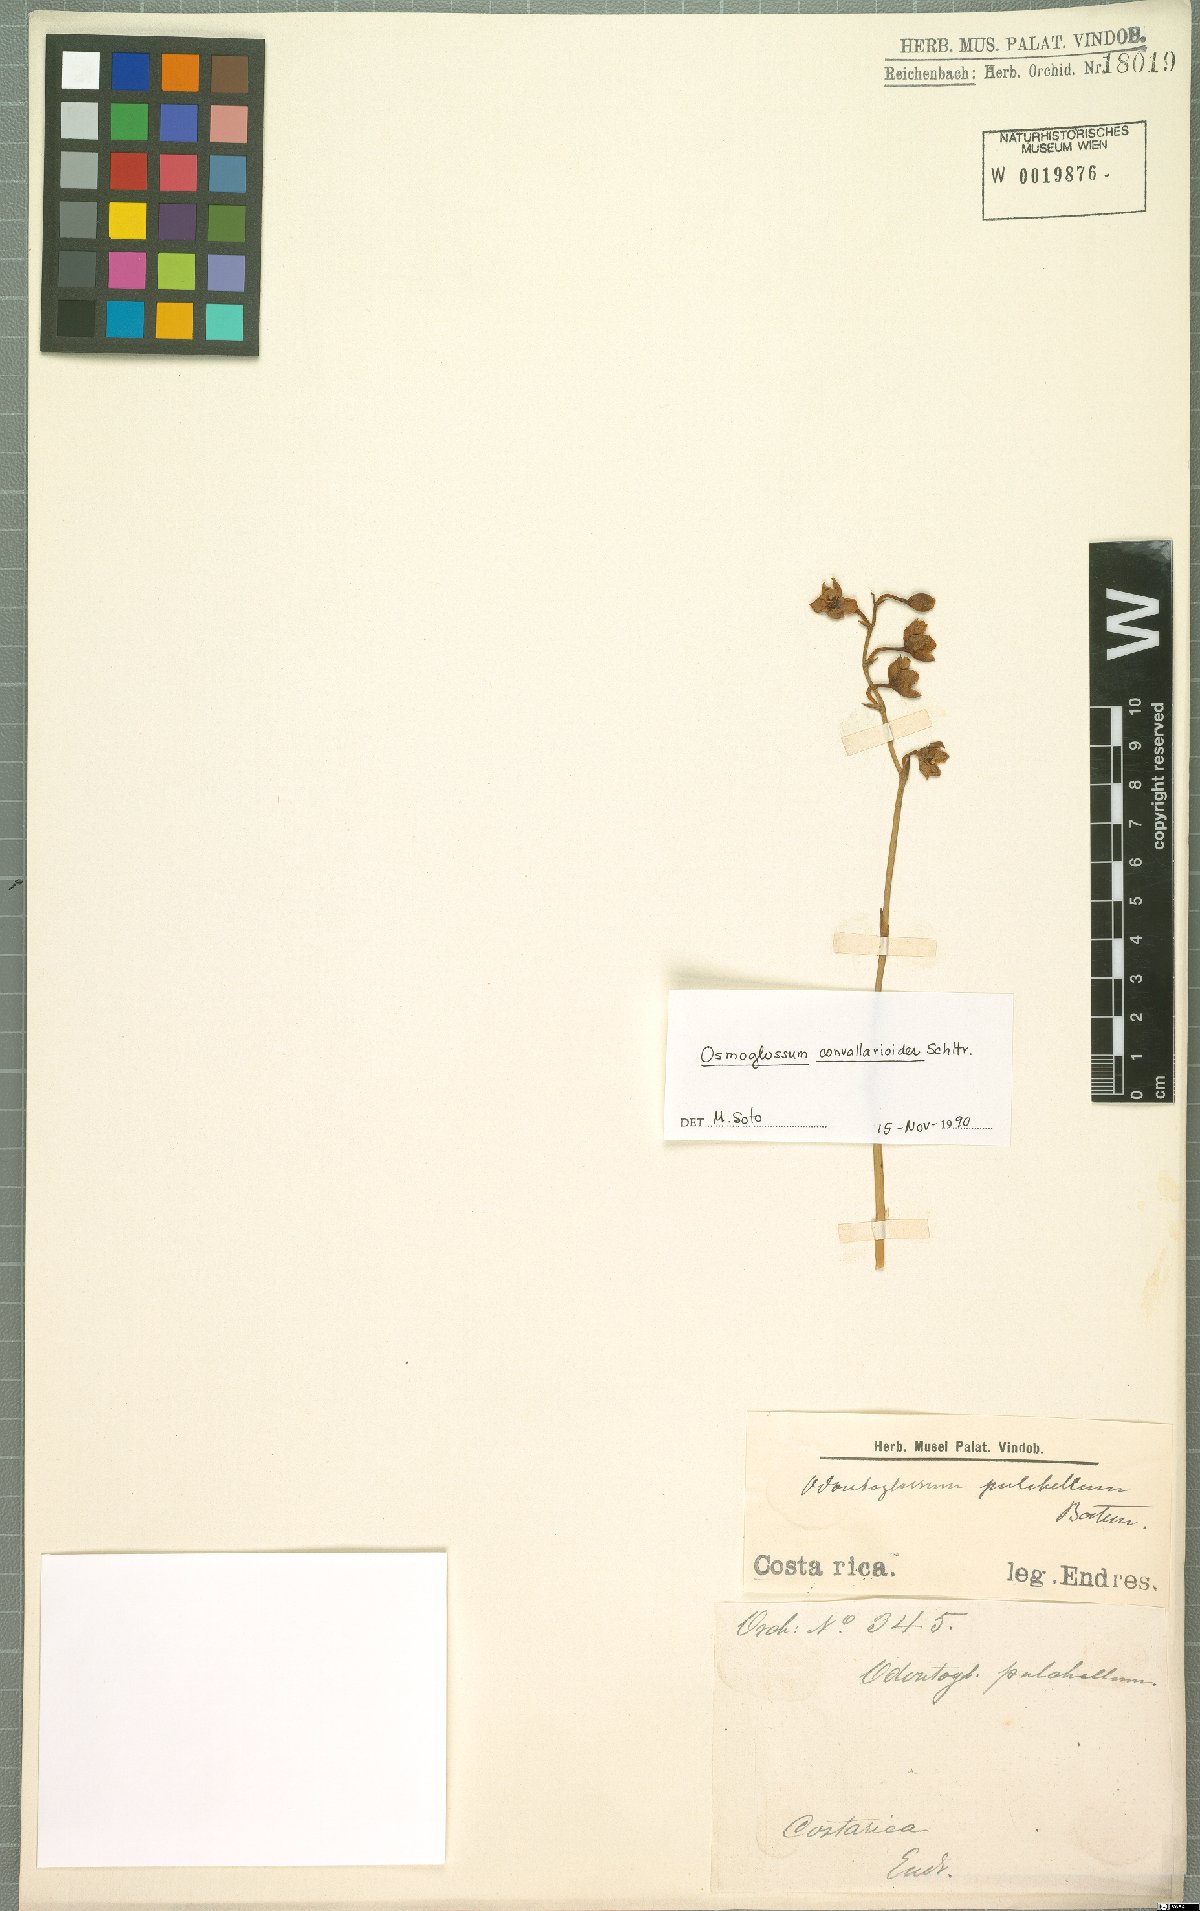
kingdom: Plantae
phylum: Tracheophyta
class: Liliopsida
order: Asparagales
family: Orchidaceae
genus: Cuitlauzina
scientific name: Cuitlauzina convallarioides
